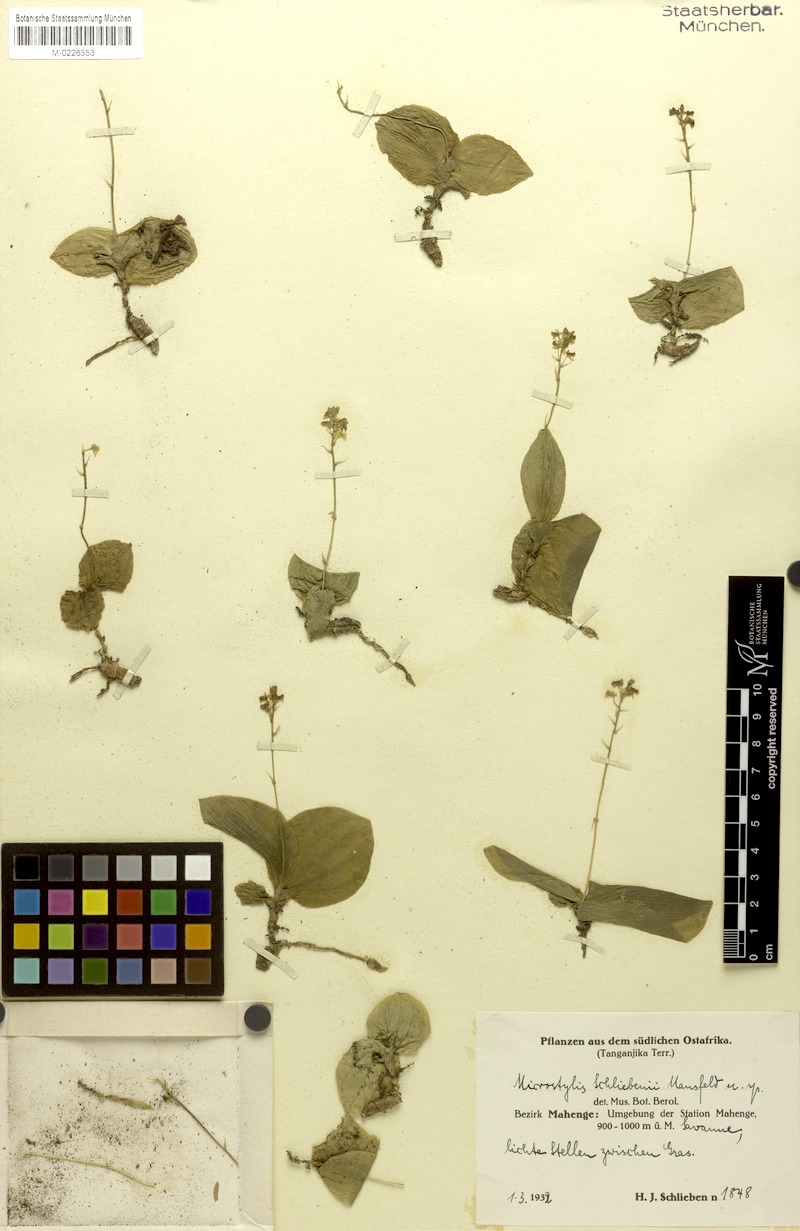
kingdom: Plantae
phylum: Tracheophyta
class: Liliopsida
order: Asparagales
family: Orchidaceae
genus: Malaxis
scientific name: Malaxis schliebenii
